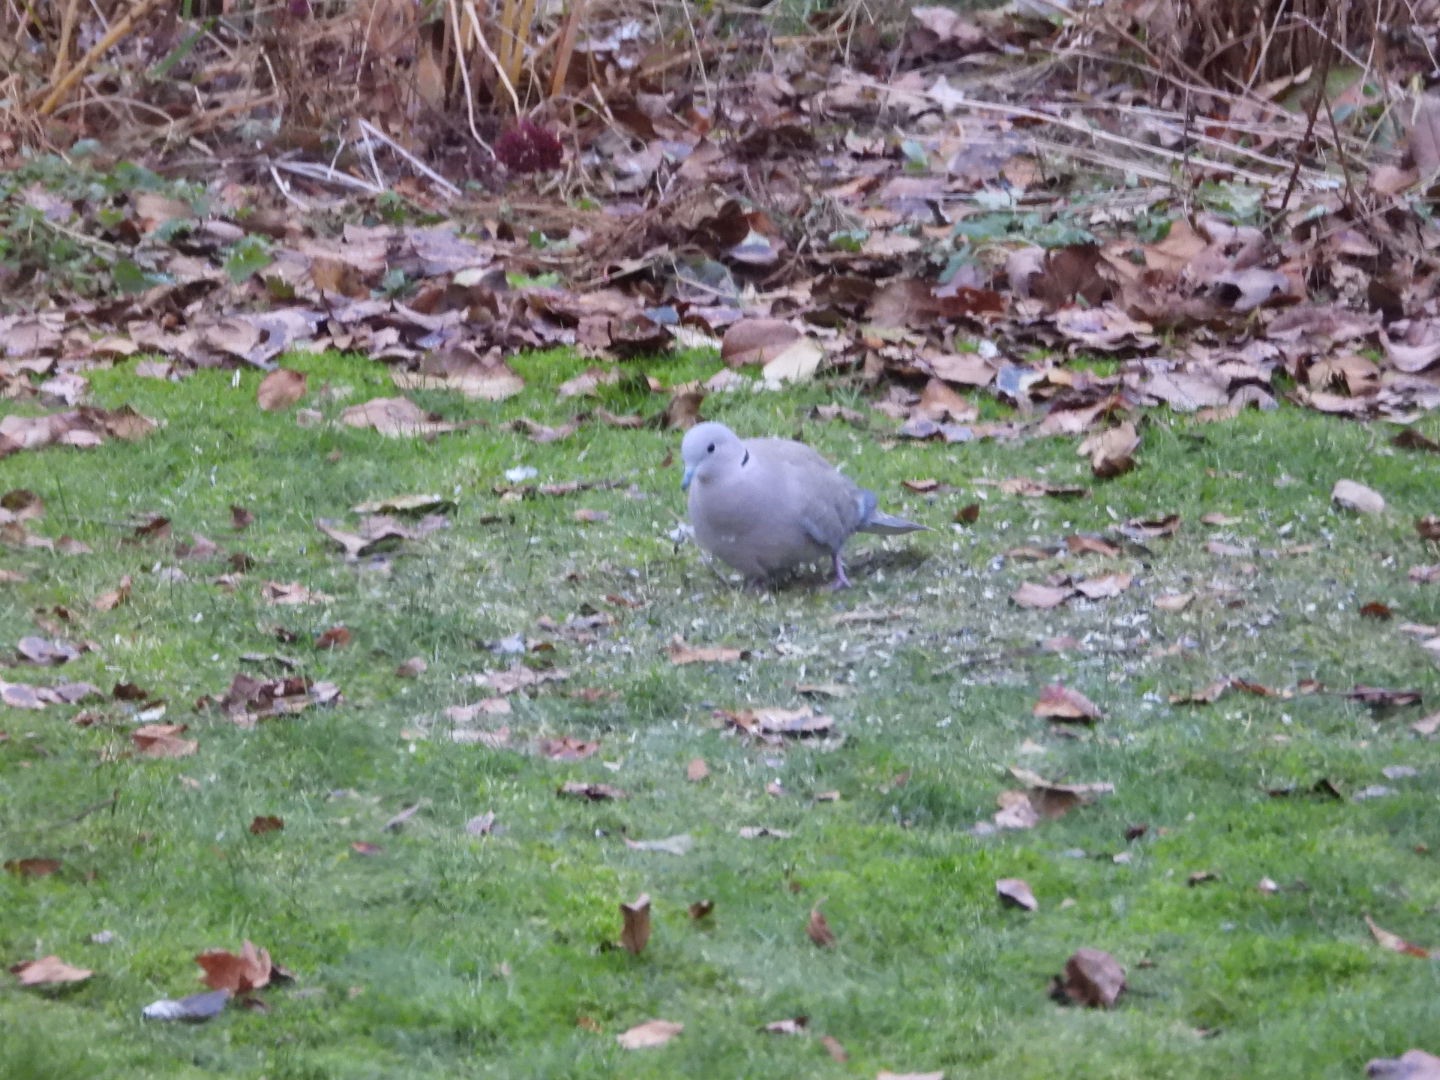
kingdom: Animalia
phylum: Chordata
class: Aves
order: Columbiformes
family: Columbidae
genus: Streptopelia
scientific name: Streptopelia decaocto
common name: Tyrkerdue
